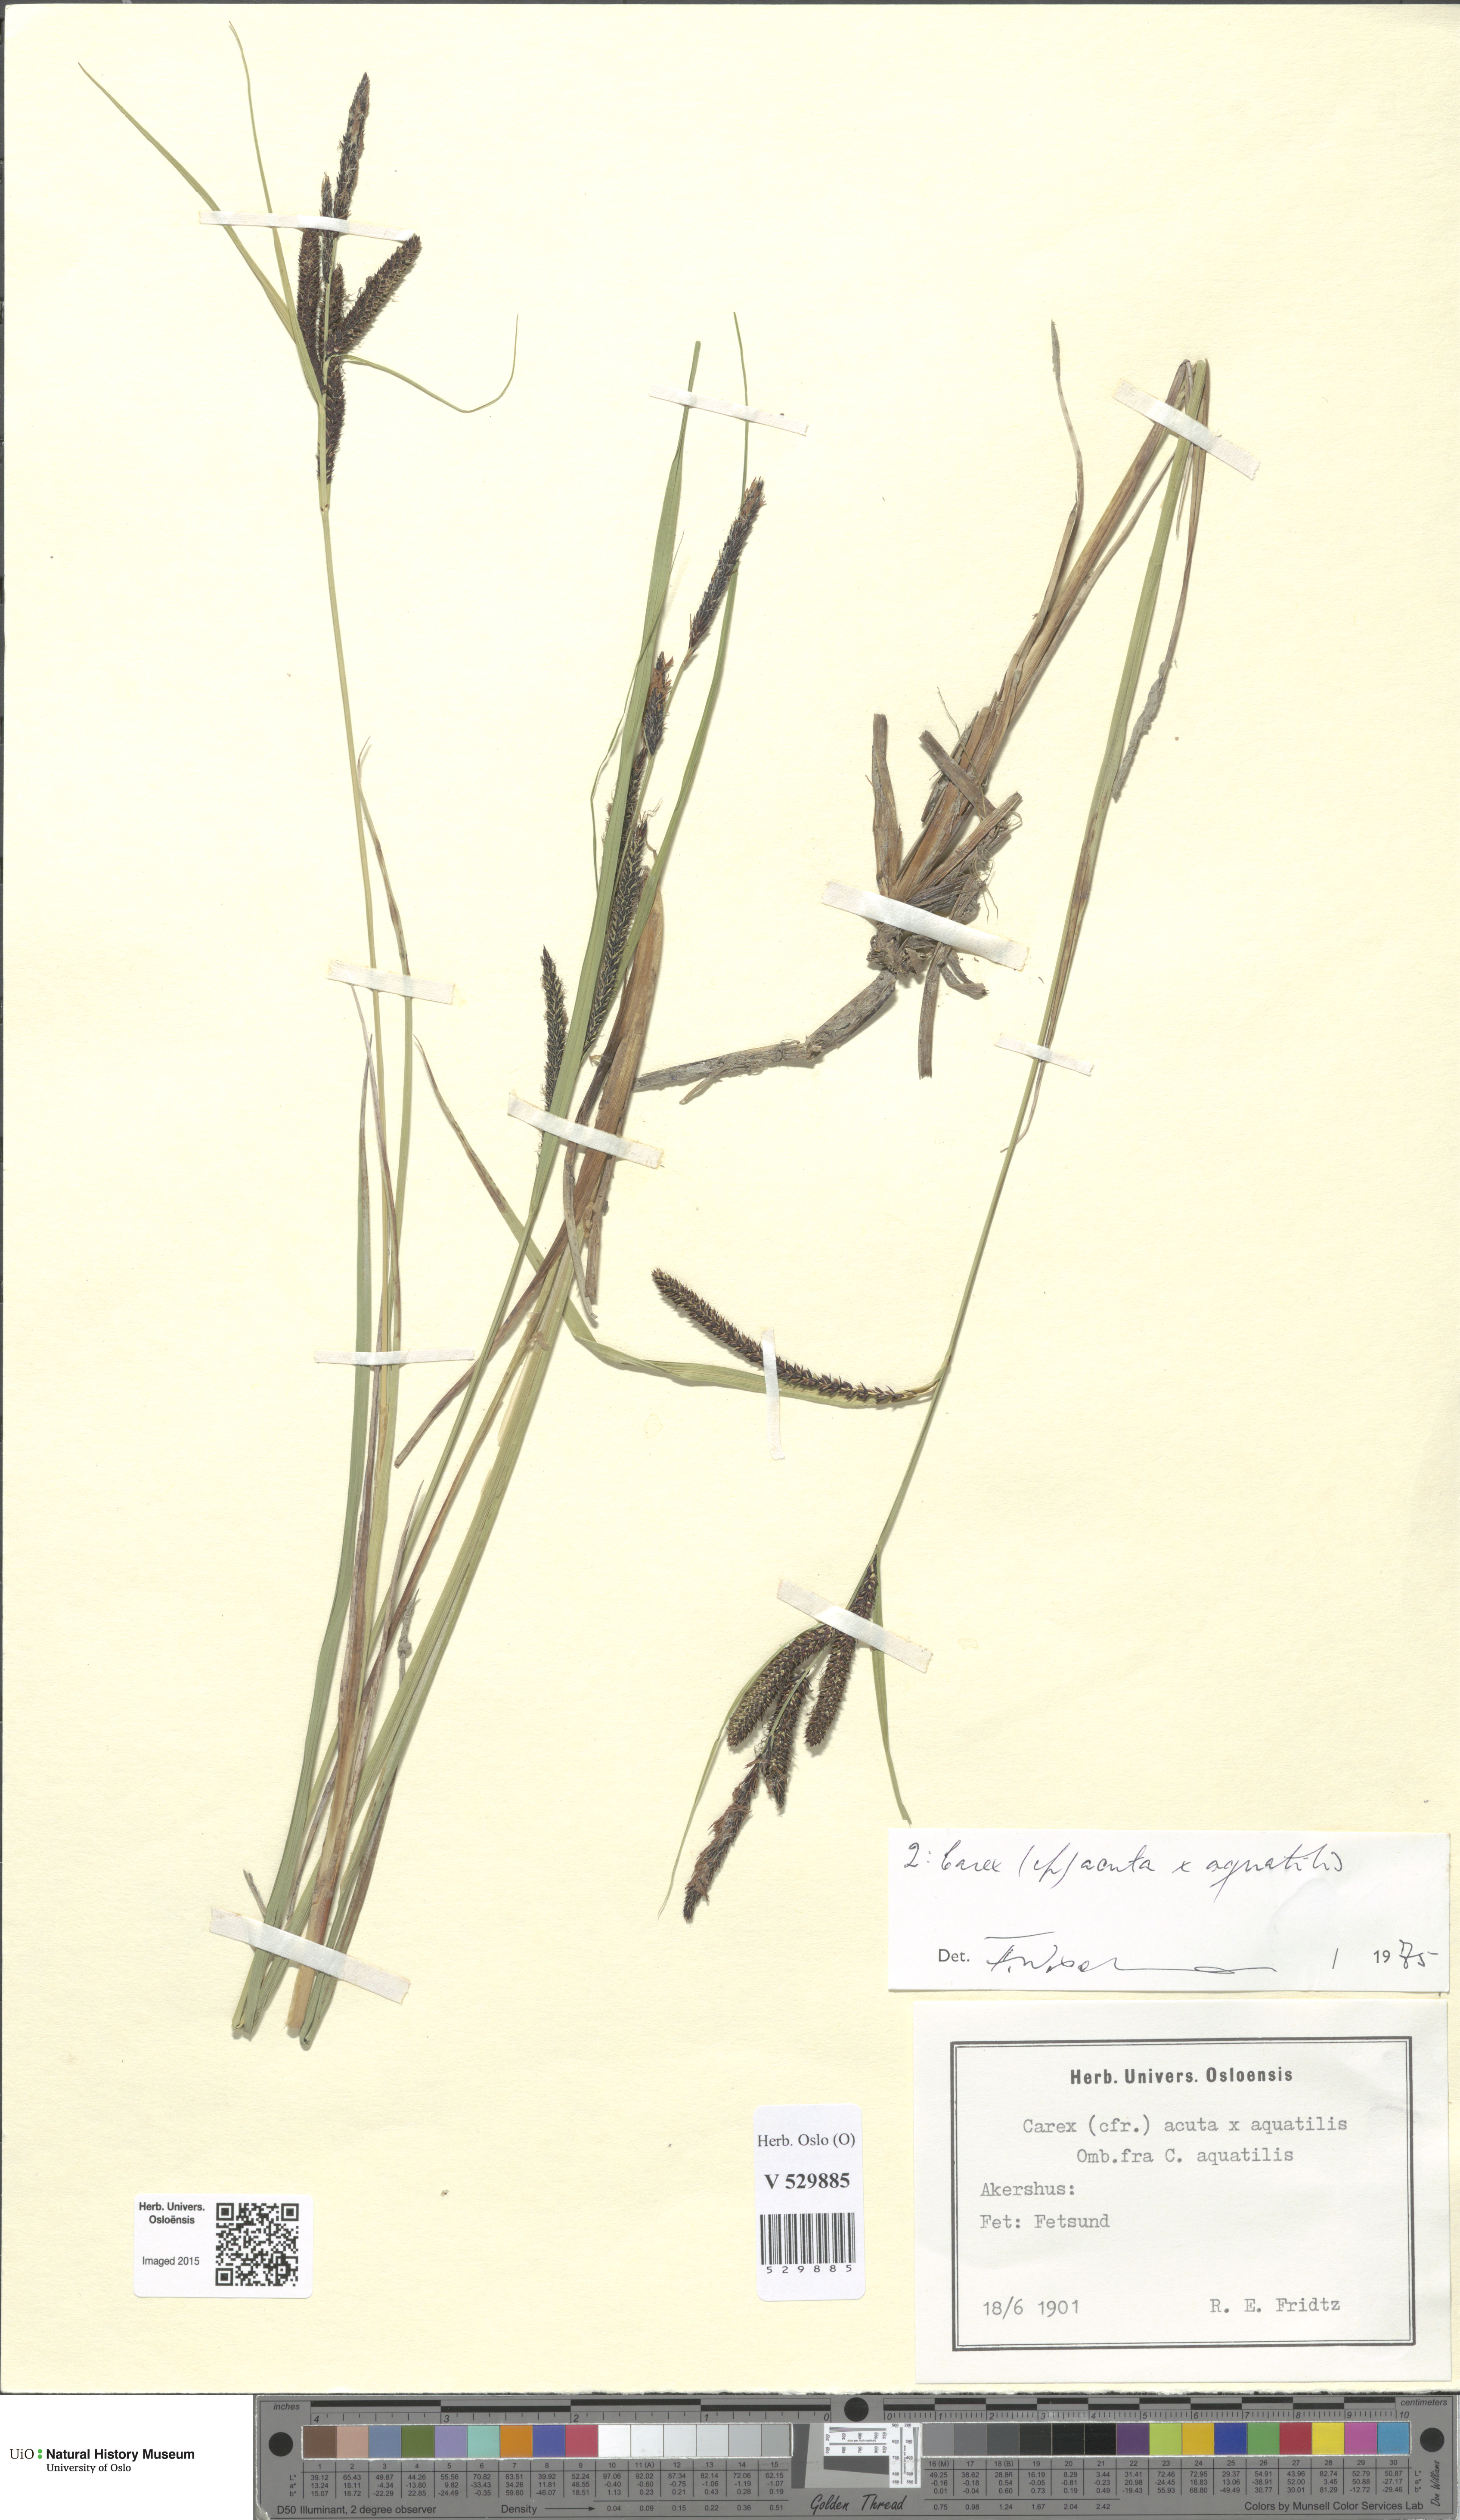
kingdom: Plantae
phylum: Tracheophyta
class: Liliopsida
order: Poales
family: Cyperaceae
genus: Carex
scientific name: Carex
